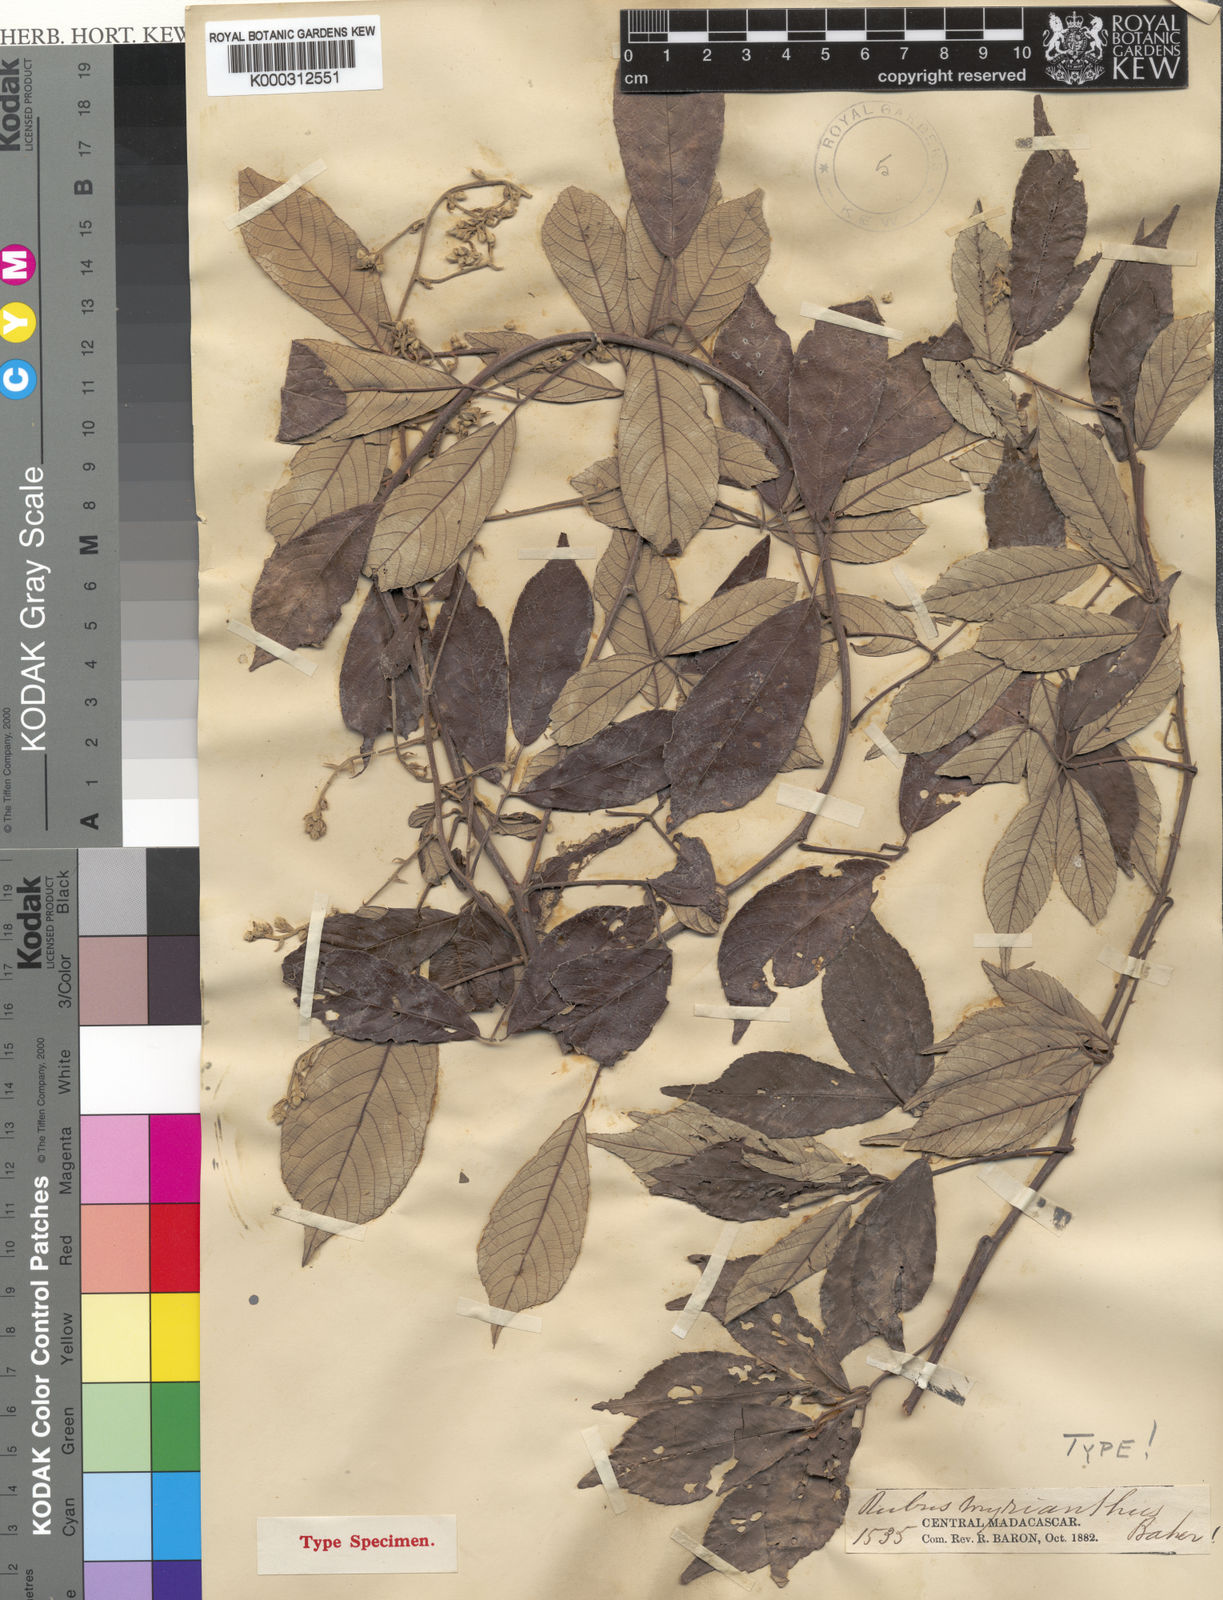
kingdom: Plantae
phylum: Tracheophyta
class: Magnoliopsida
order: Rosales
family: Rosaceae
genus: Rubus
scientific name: Rubus
